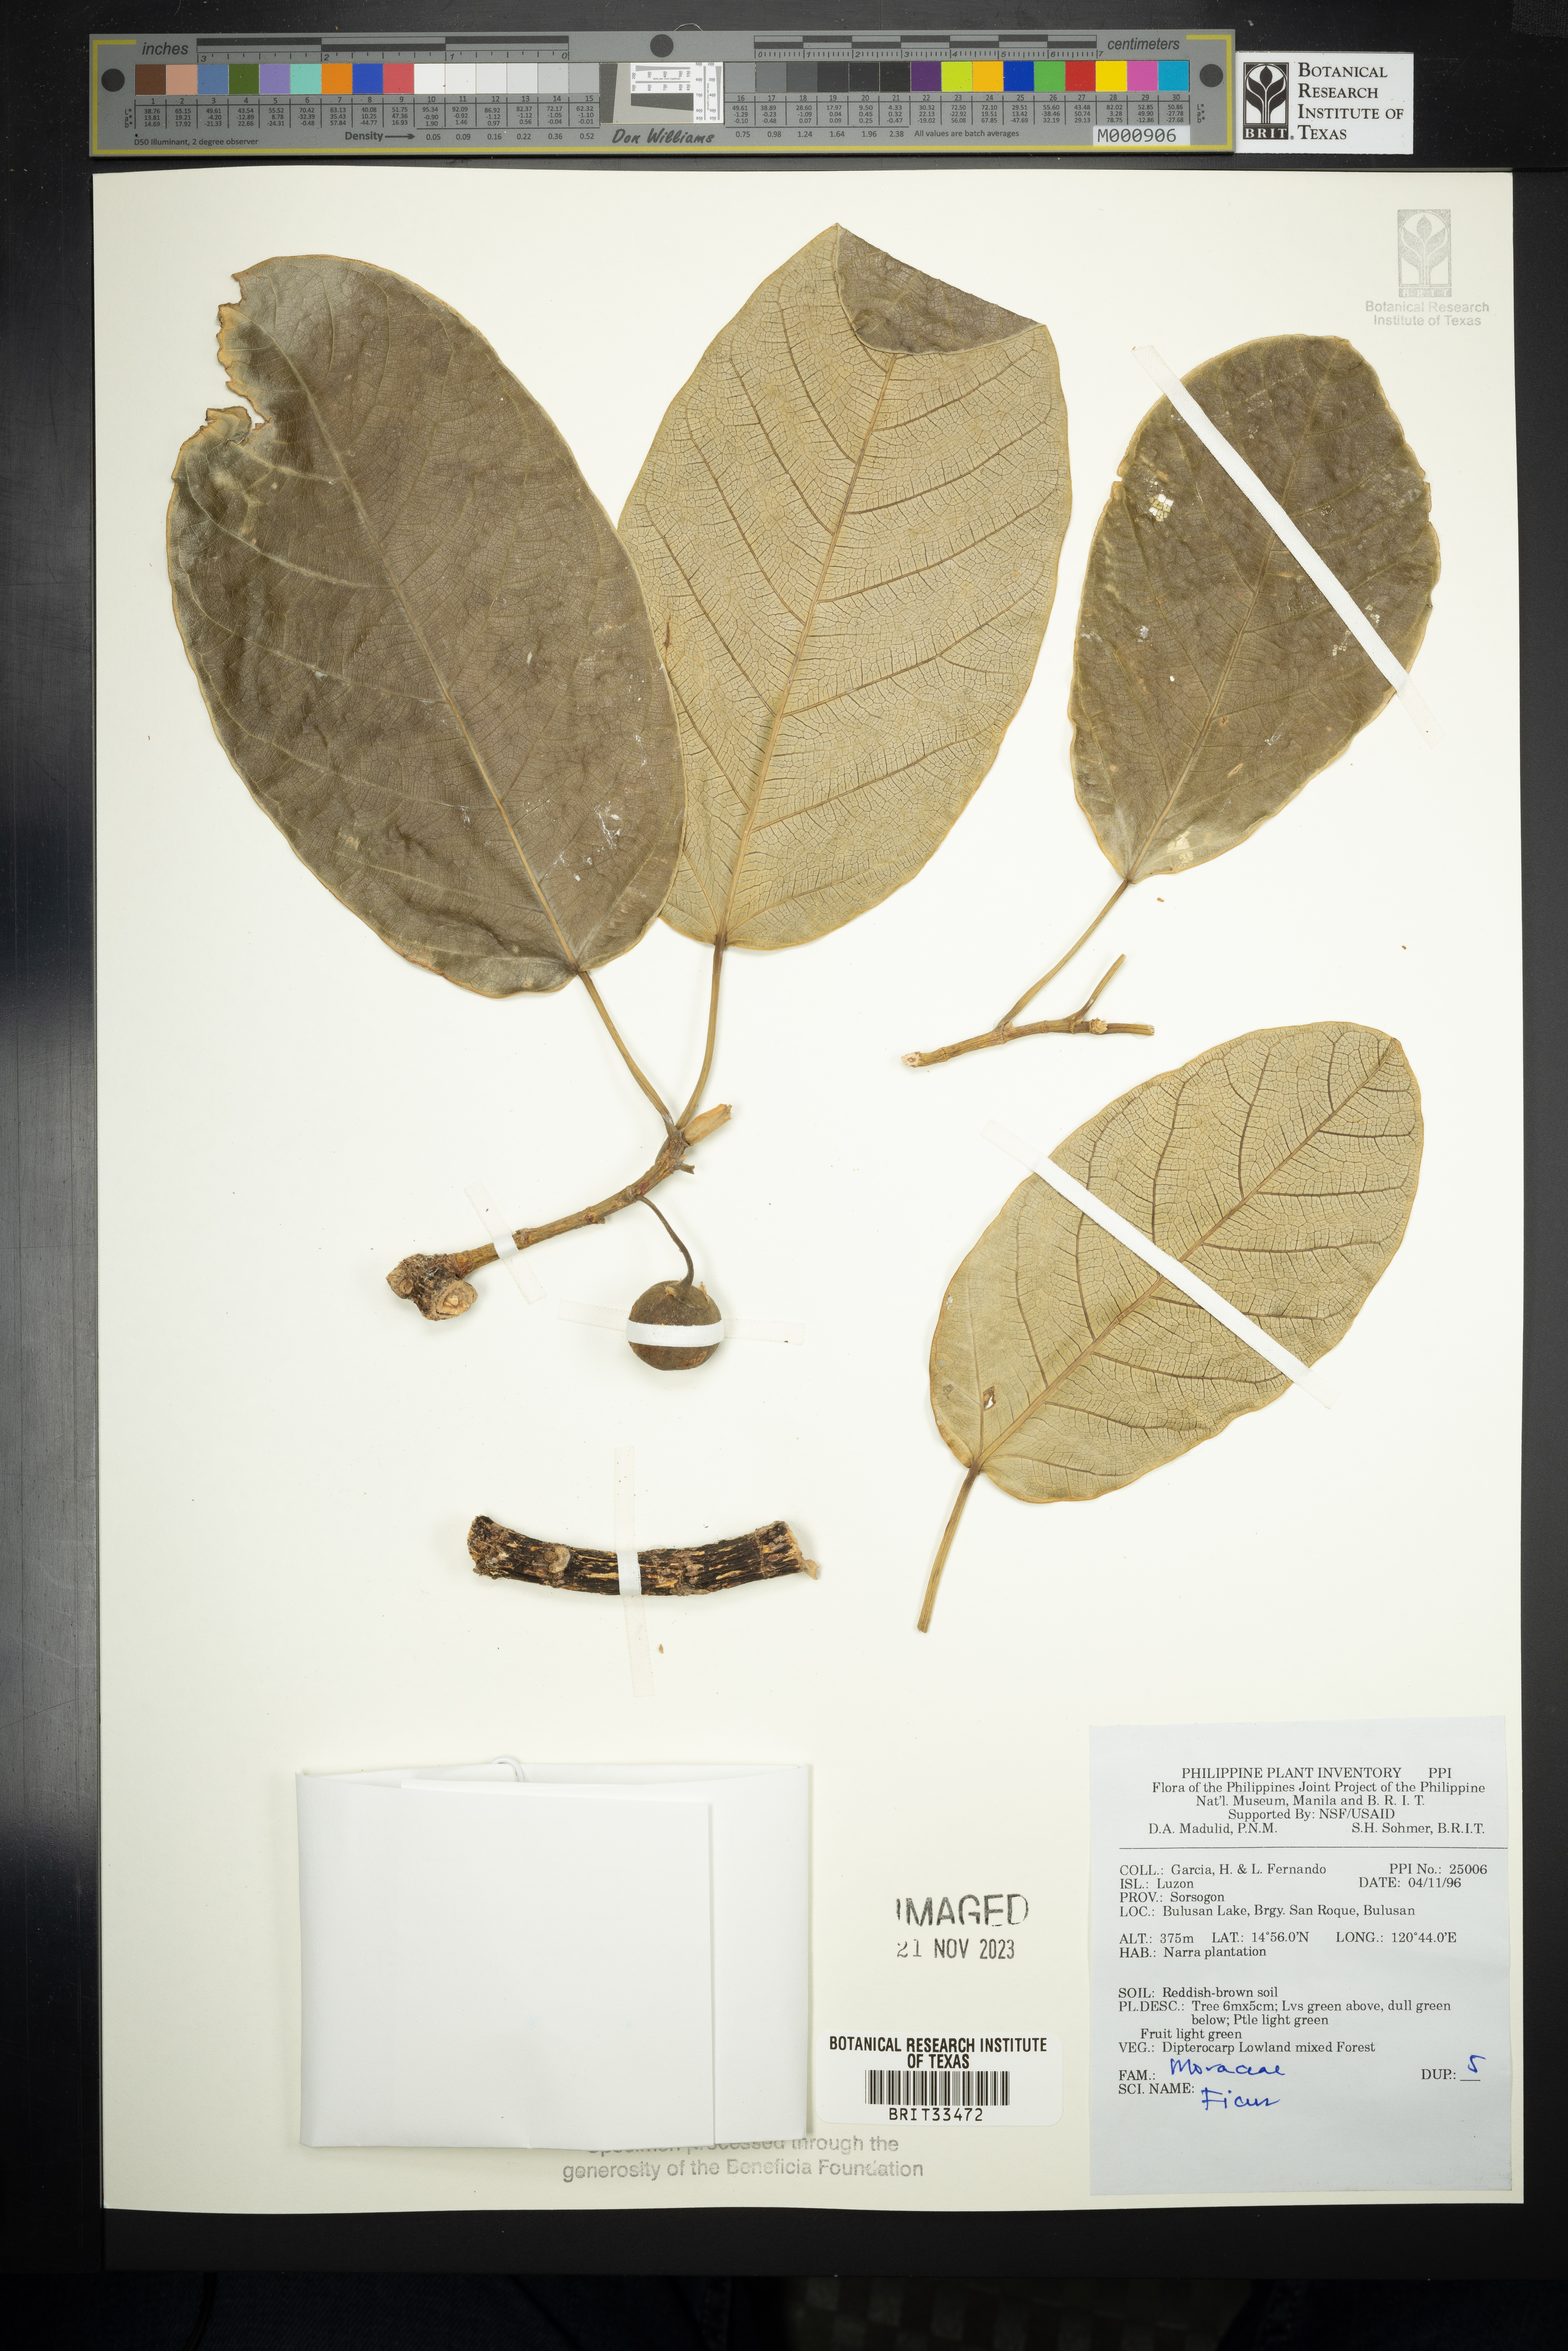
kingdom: Plantae
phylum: Tracheophyta
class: Magnoliopsida
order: Rosales
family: Moraceae
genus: Ficus
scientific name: Ficus
